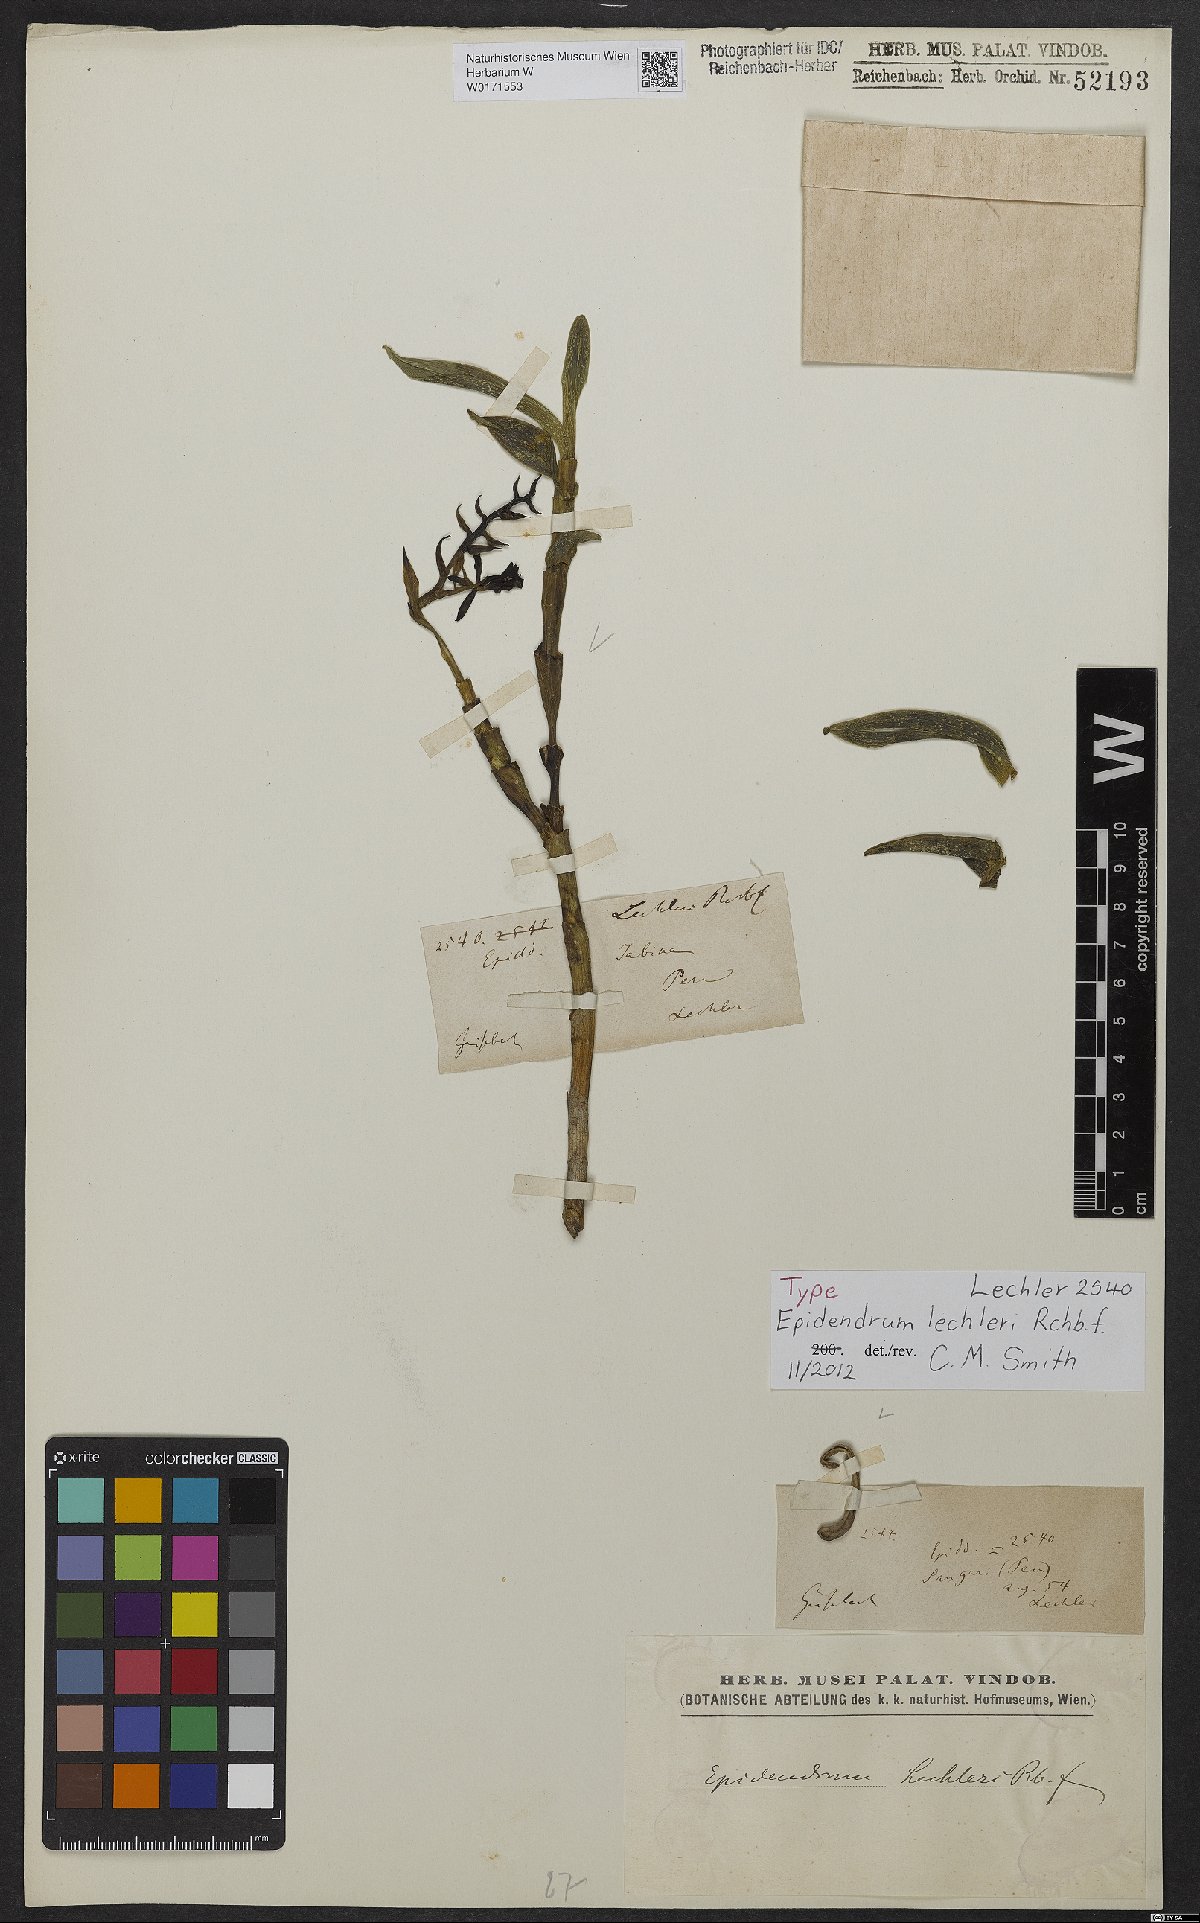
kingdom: Plantae
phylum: Tracheophyta
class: Liliopsida
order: Asparagales
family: Orchidaceae
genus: Epidendrum
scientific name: Epidendrum lechleri
